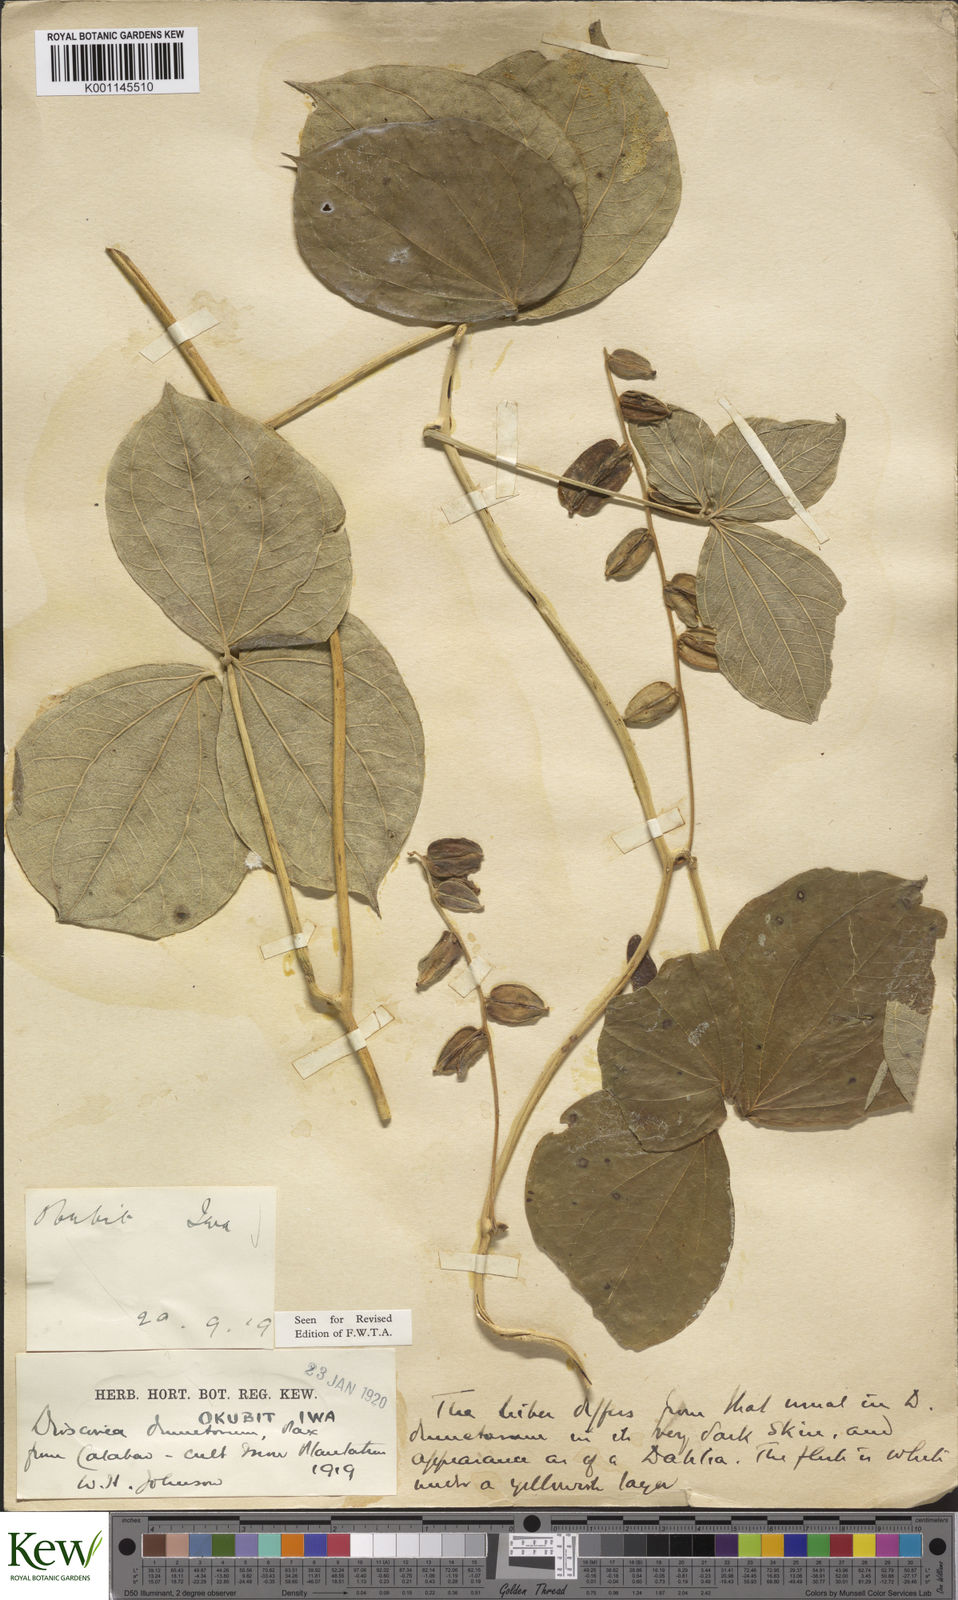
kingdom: Plantae
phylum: Tracheophyta
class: Liliopsida
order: Dioscoreales
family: Dioscoreaceae
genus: Dioscorea
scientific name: Dioscorea dumetorum
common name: African bitter yam
